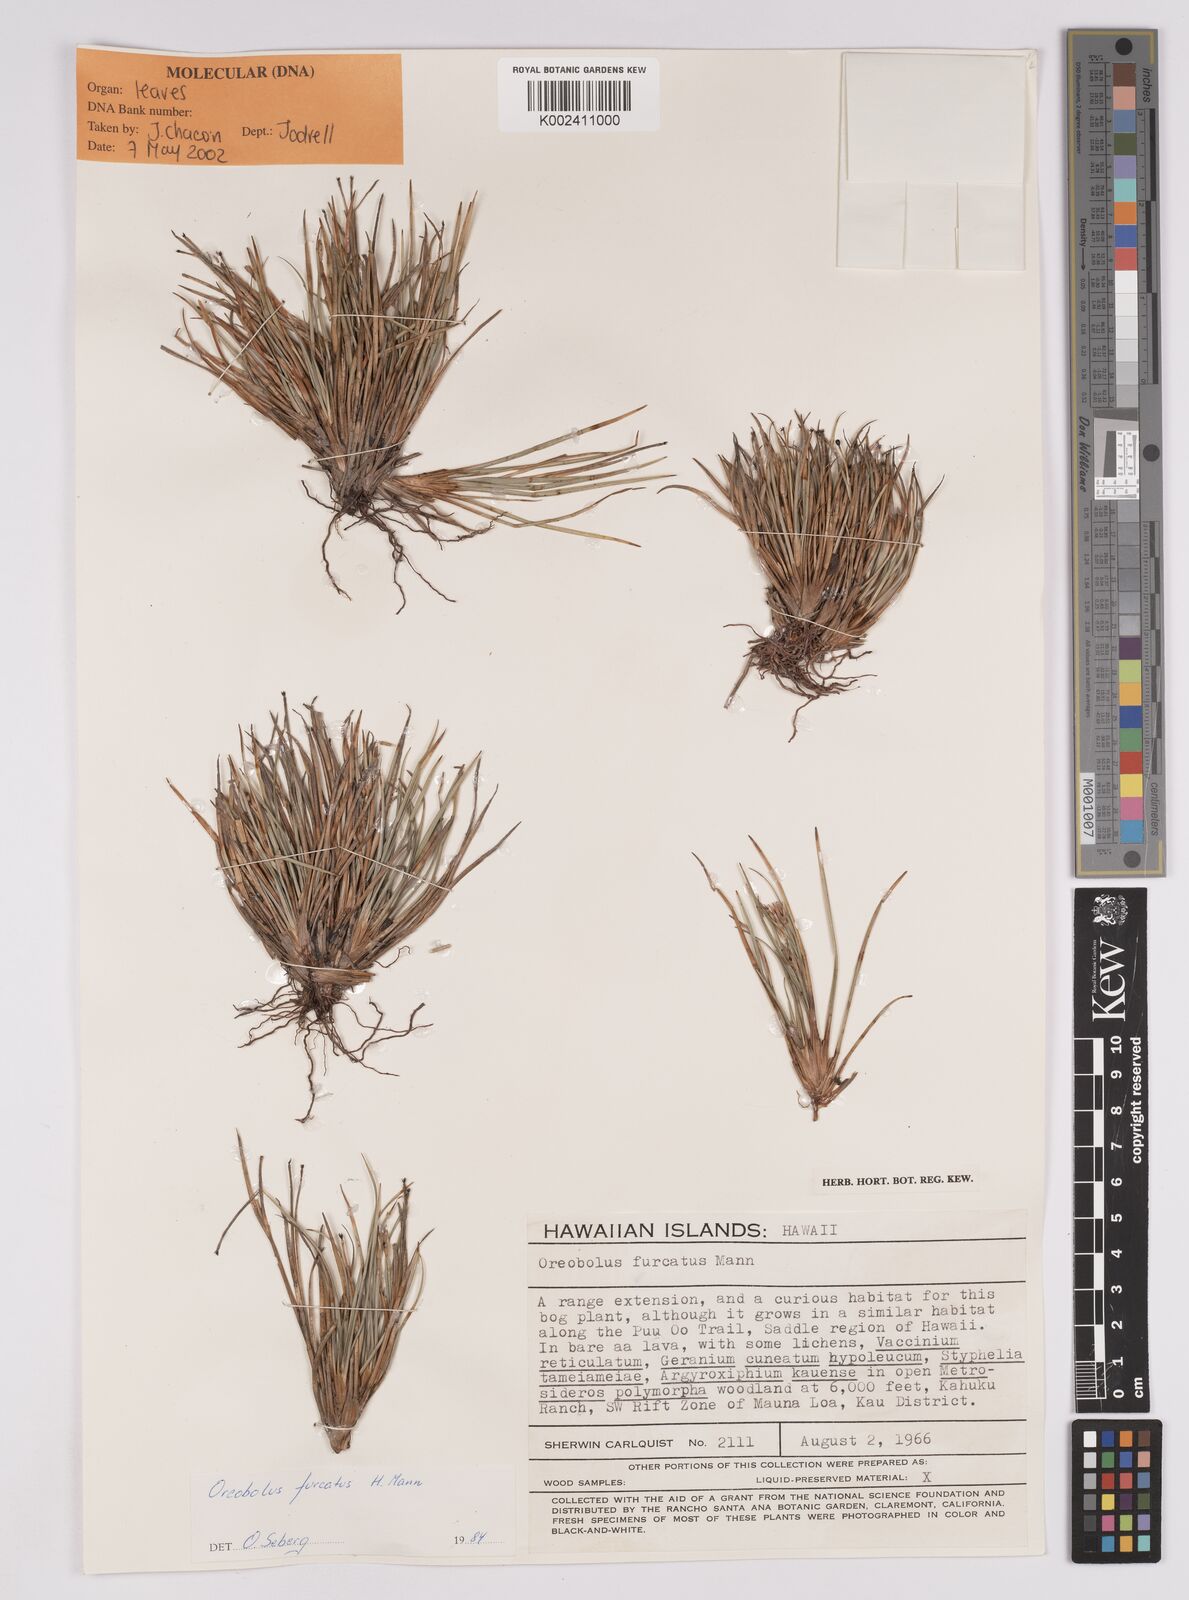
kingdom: Plantae
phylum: Tracheophyta
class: Liliopsida
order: Poales
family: Cyperaceae
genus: Oreobolus
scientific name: Oreobolus
